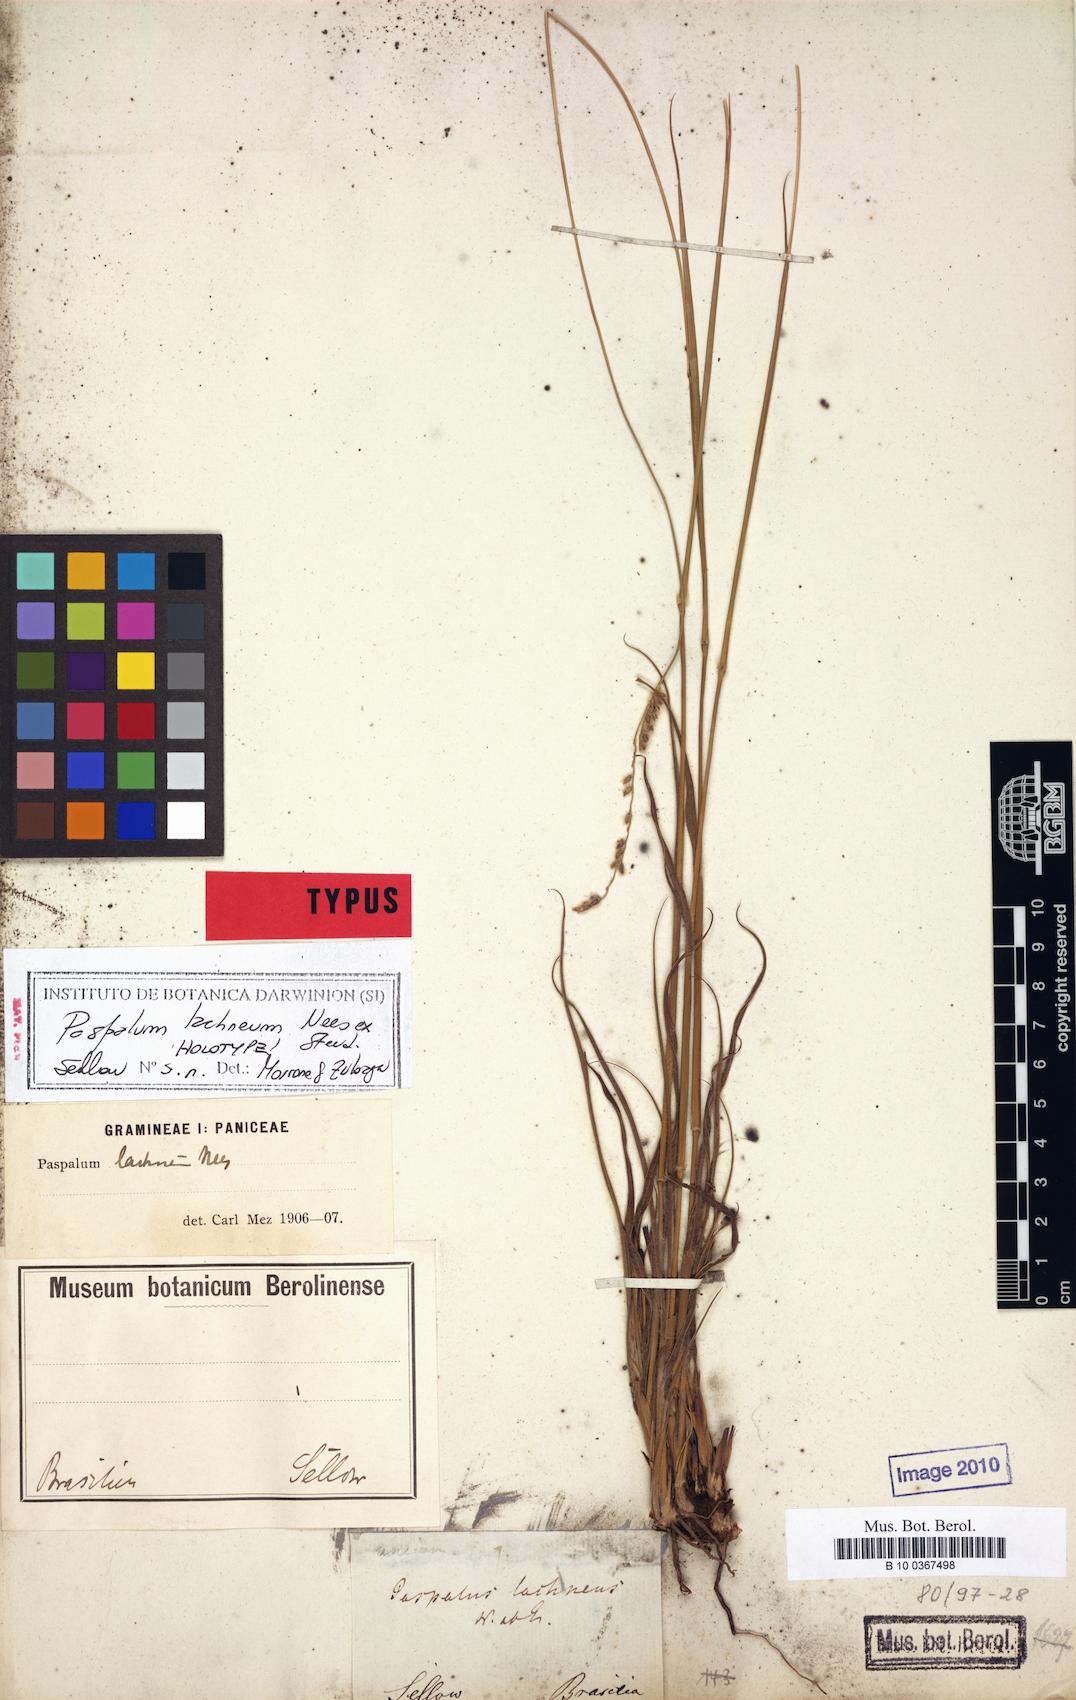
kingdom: Plantae
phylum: Tracheophyta
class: Liliopsida
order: Poales
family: Poaceae
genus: Paspalum
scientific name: Paspalum lachneum
